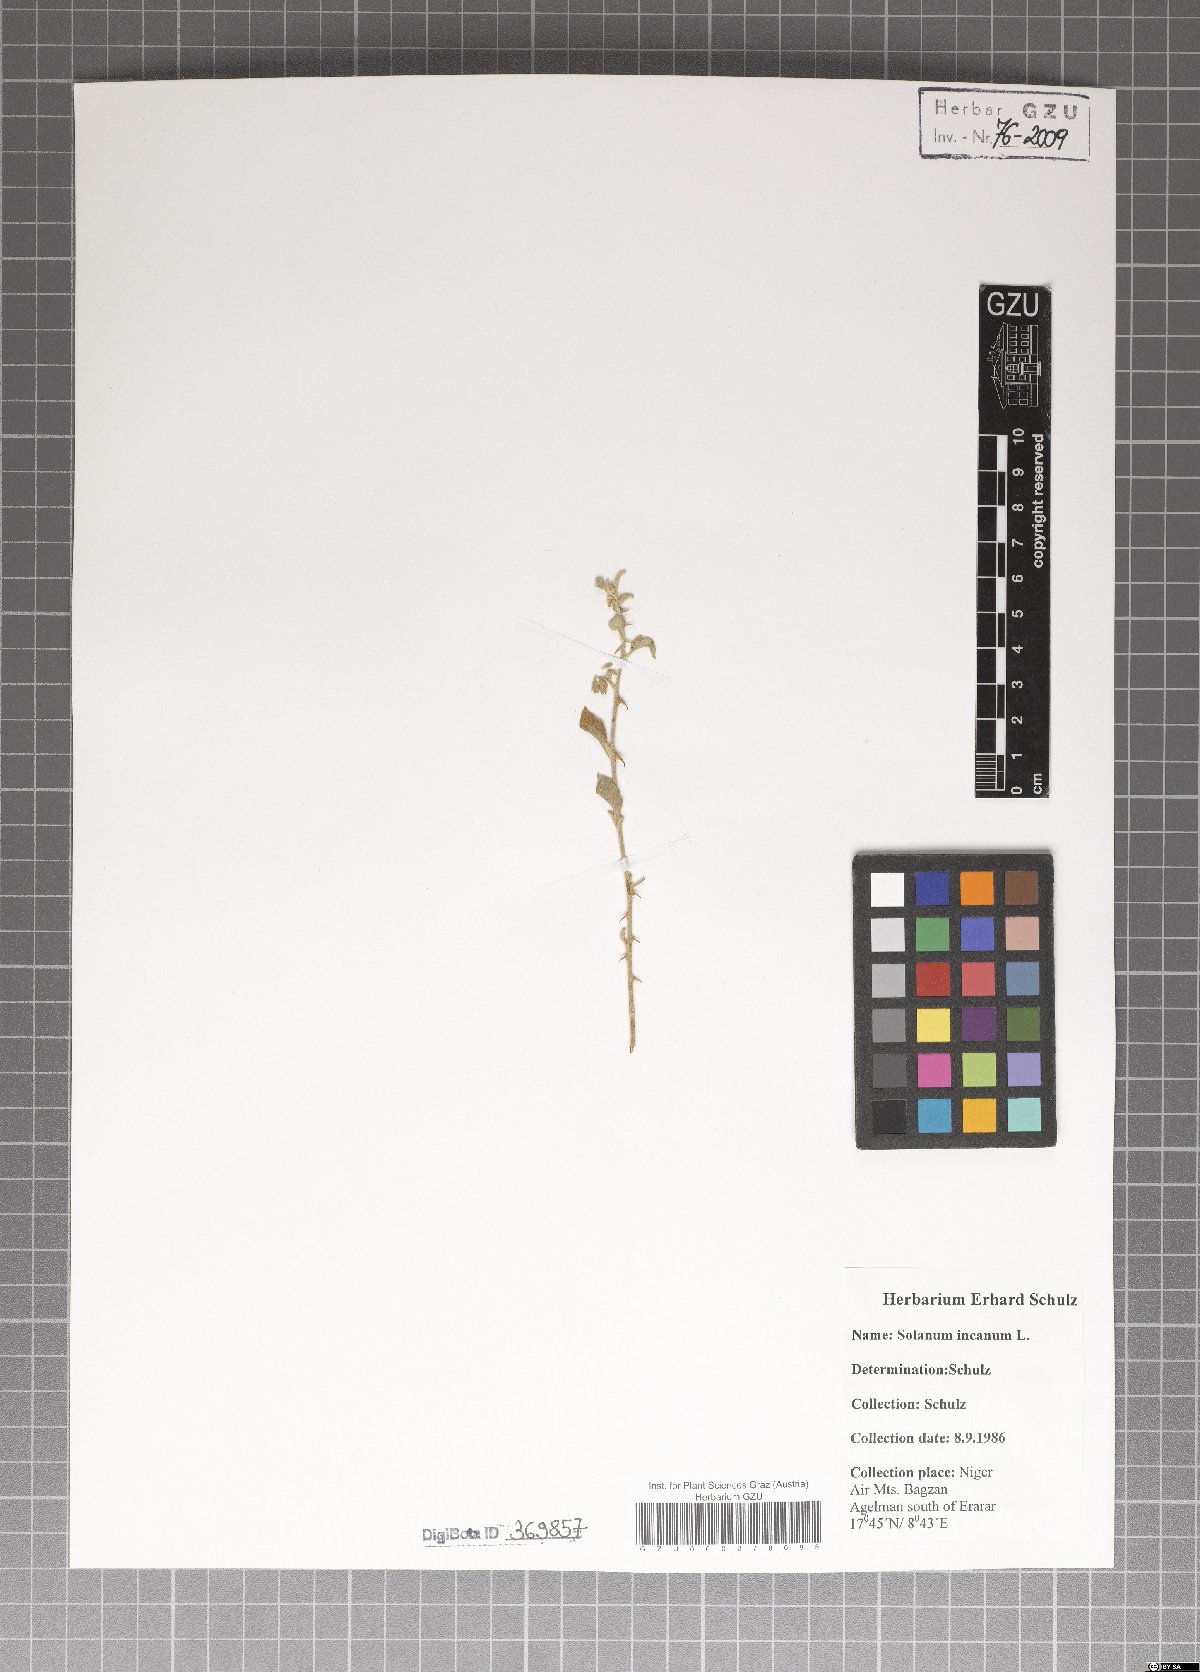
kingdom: Plantae
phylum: Tracheophyta
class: Magnoliopsida
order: Solanales
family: Solanaceae
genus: Solanum
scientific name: Solanum incanum
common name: Bitter apple
